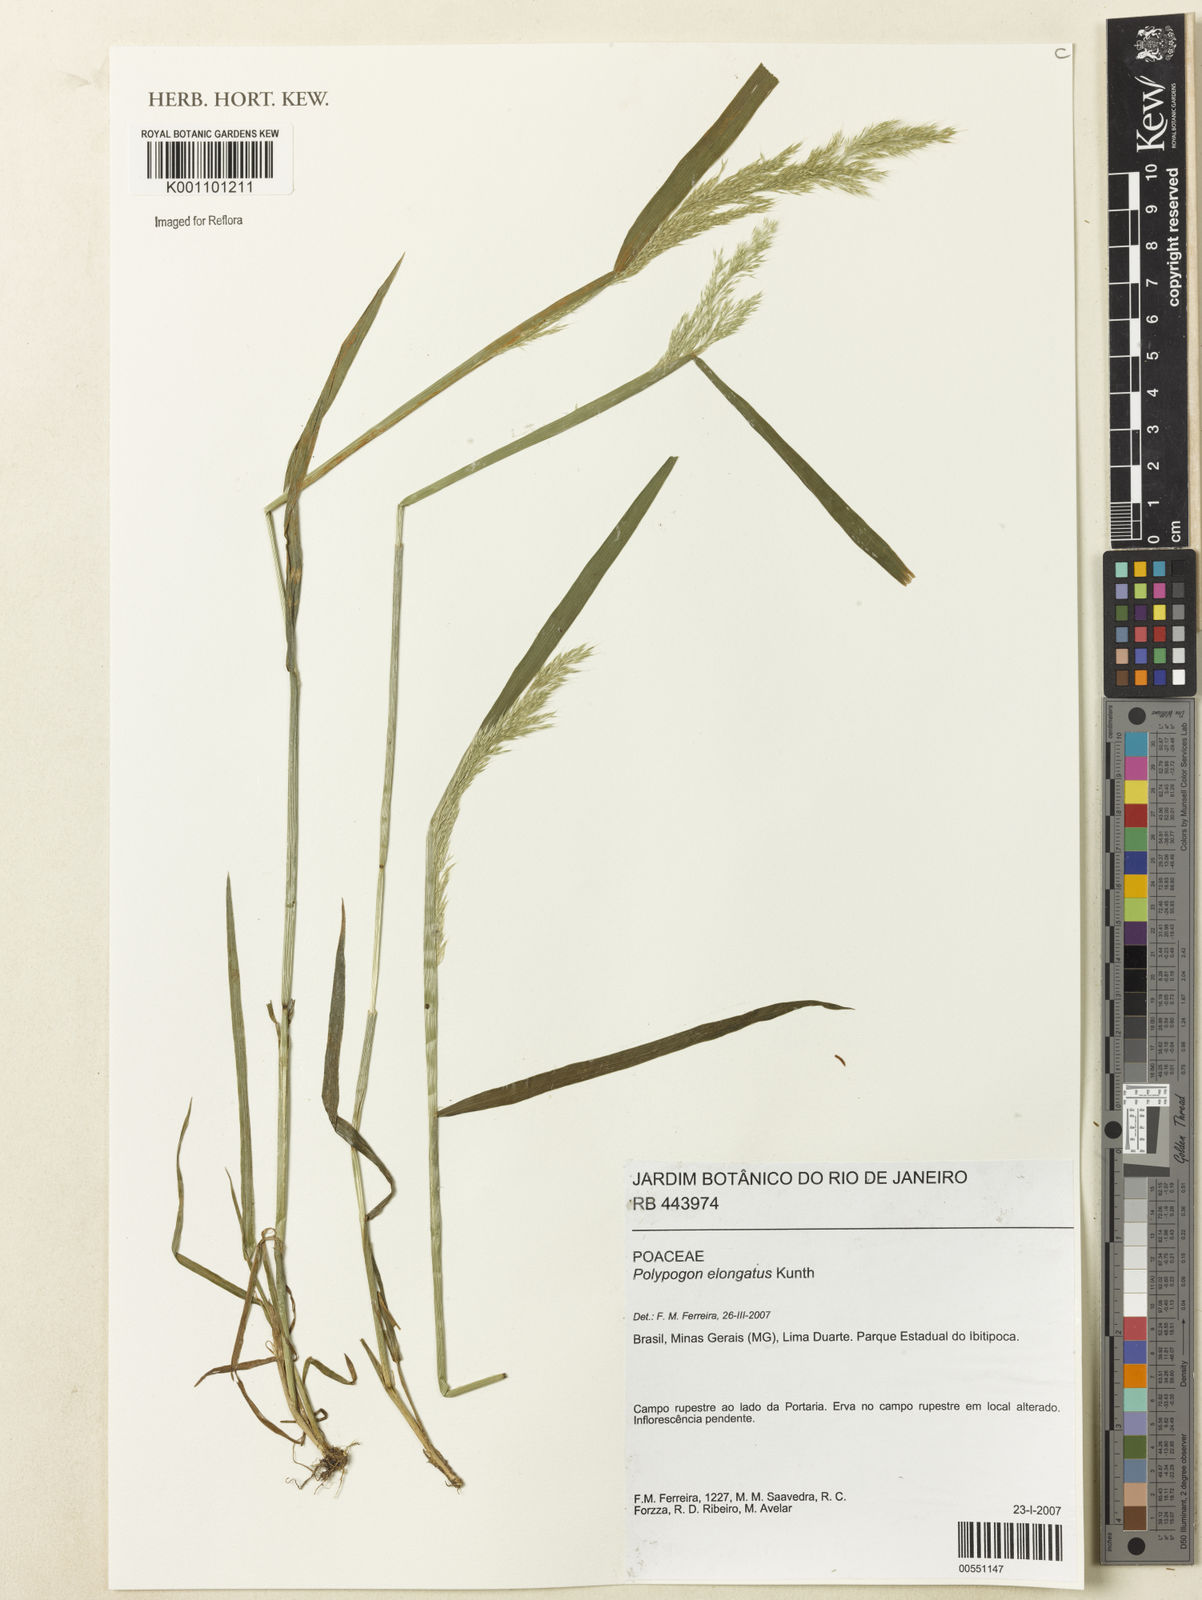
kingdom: Plantae
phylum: Tracheophyta
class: Liliopsida
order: Poales
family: Poaceae
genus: Polypogon
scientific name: Polypogon elongatus
